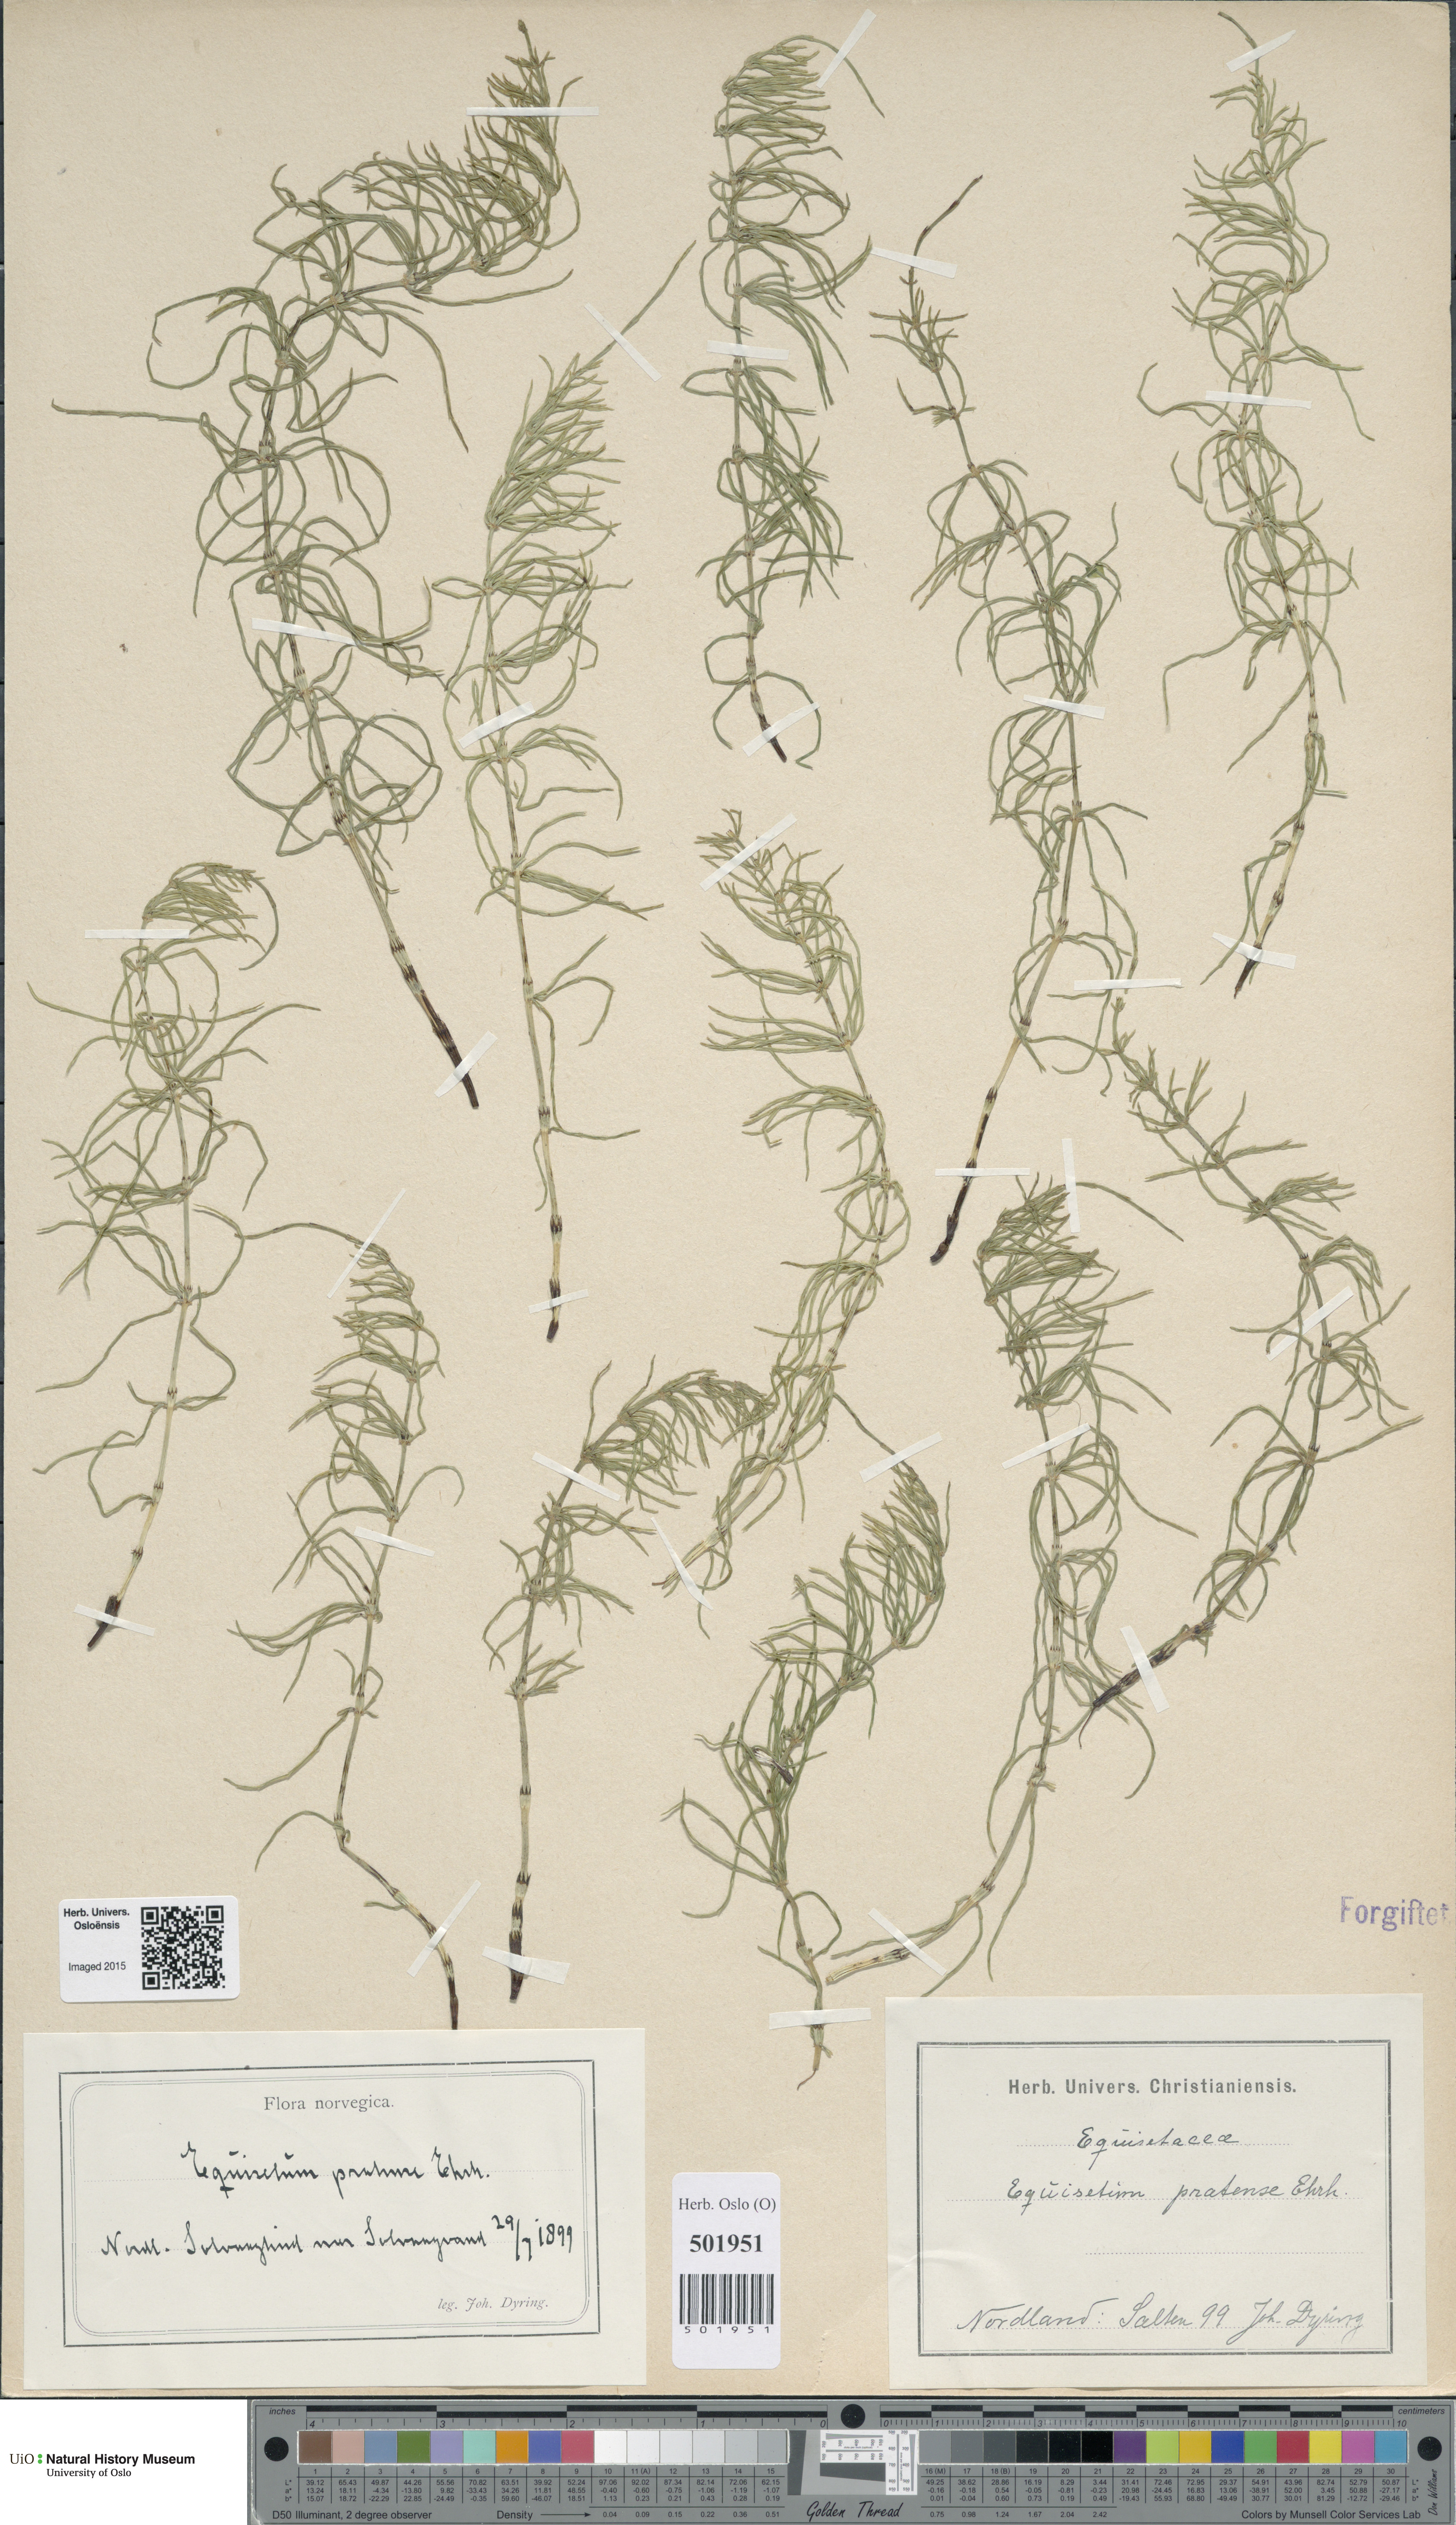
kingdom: Plantae
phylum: Tracheophyta
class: Polypodiopsida
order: Equisetales
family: Equisetaceae
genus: Equisetum
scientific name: Equisetum pratense
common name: Meadow horsetail
